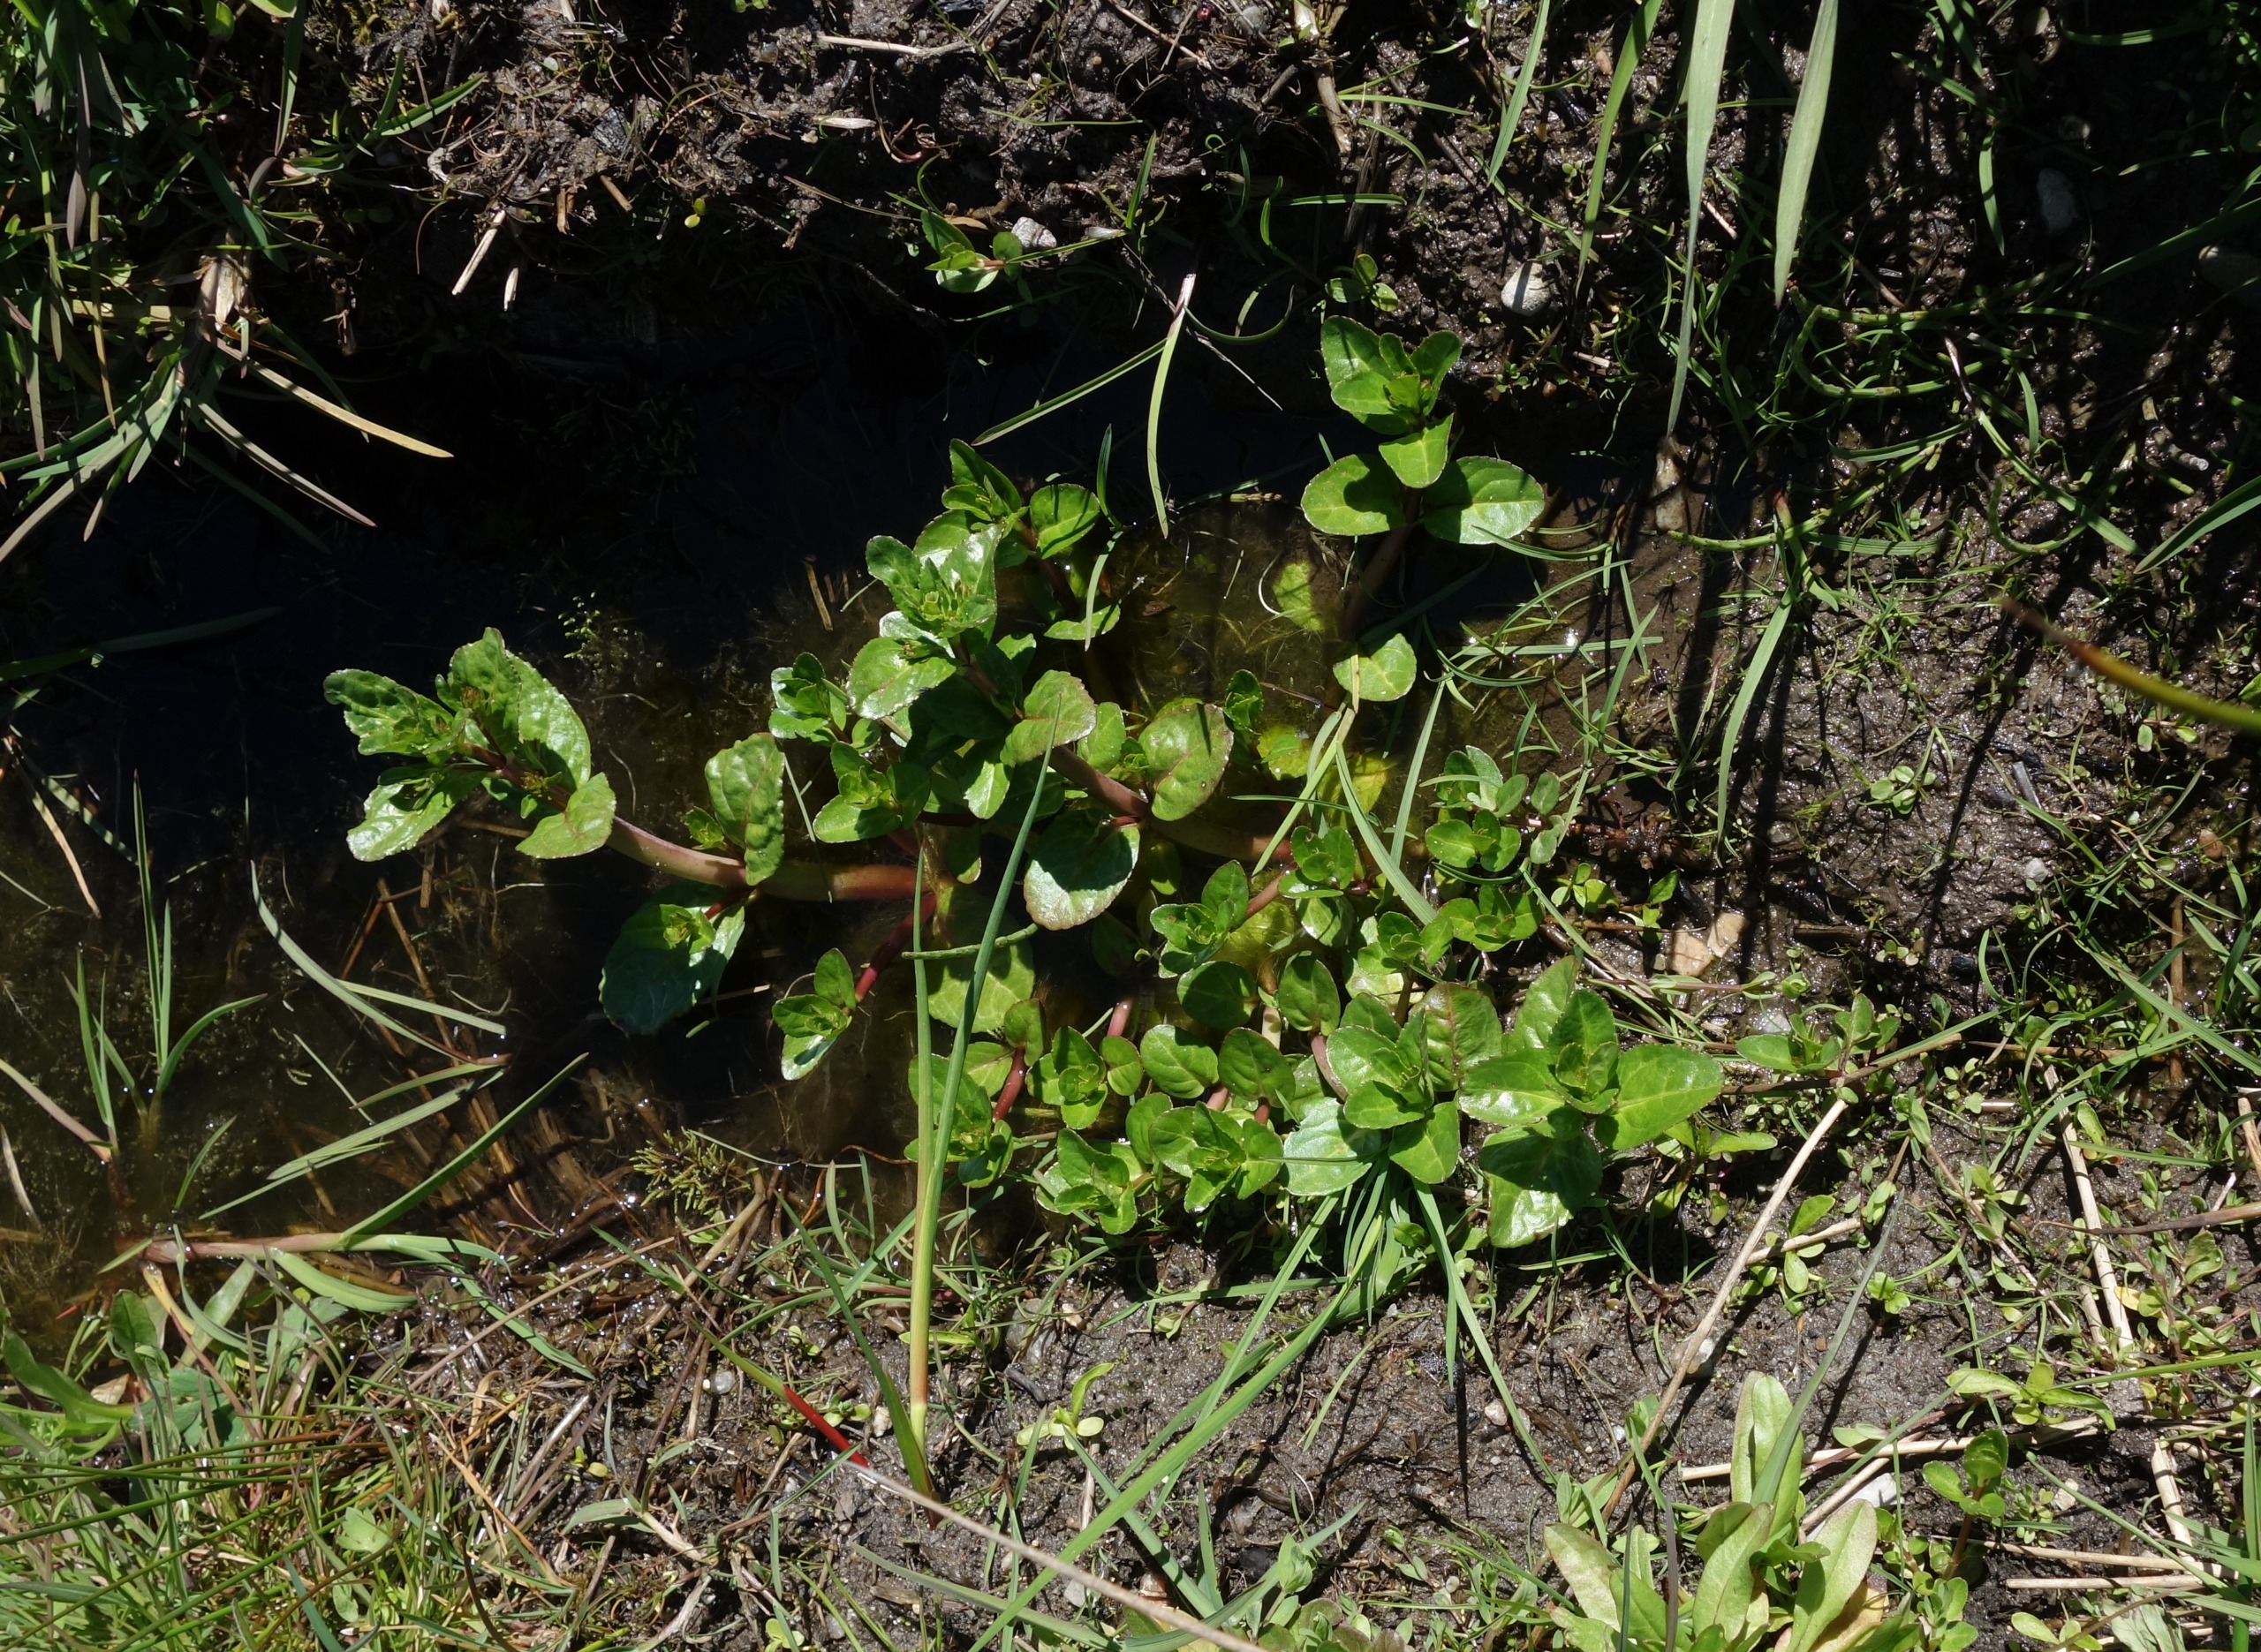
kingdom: Plantae
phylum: Tracheophyta
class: Magnoliopsida
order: Lamiales
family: Plantaginaceae
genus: Veronica
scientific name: Veronica beccabunga
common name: Tykbladet ærenpris
